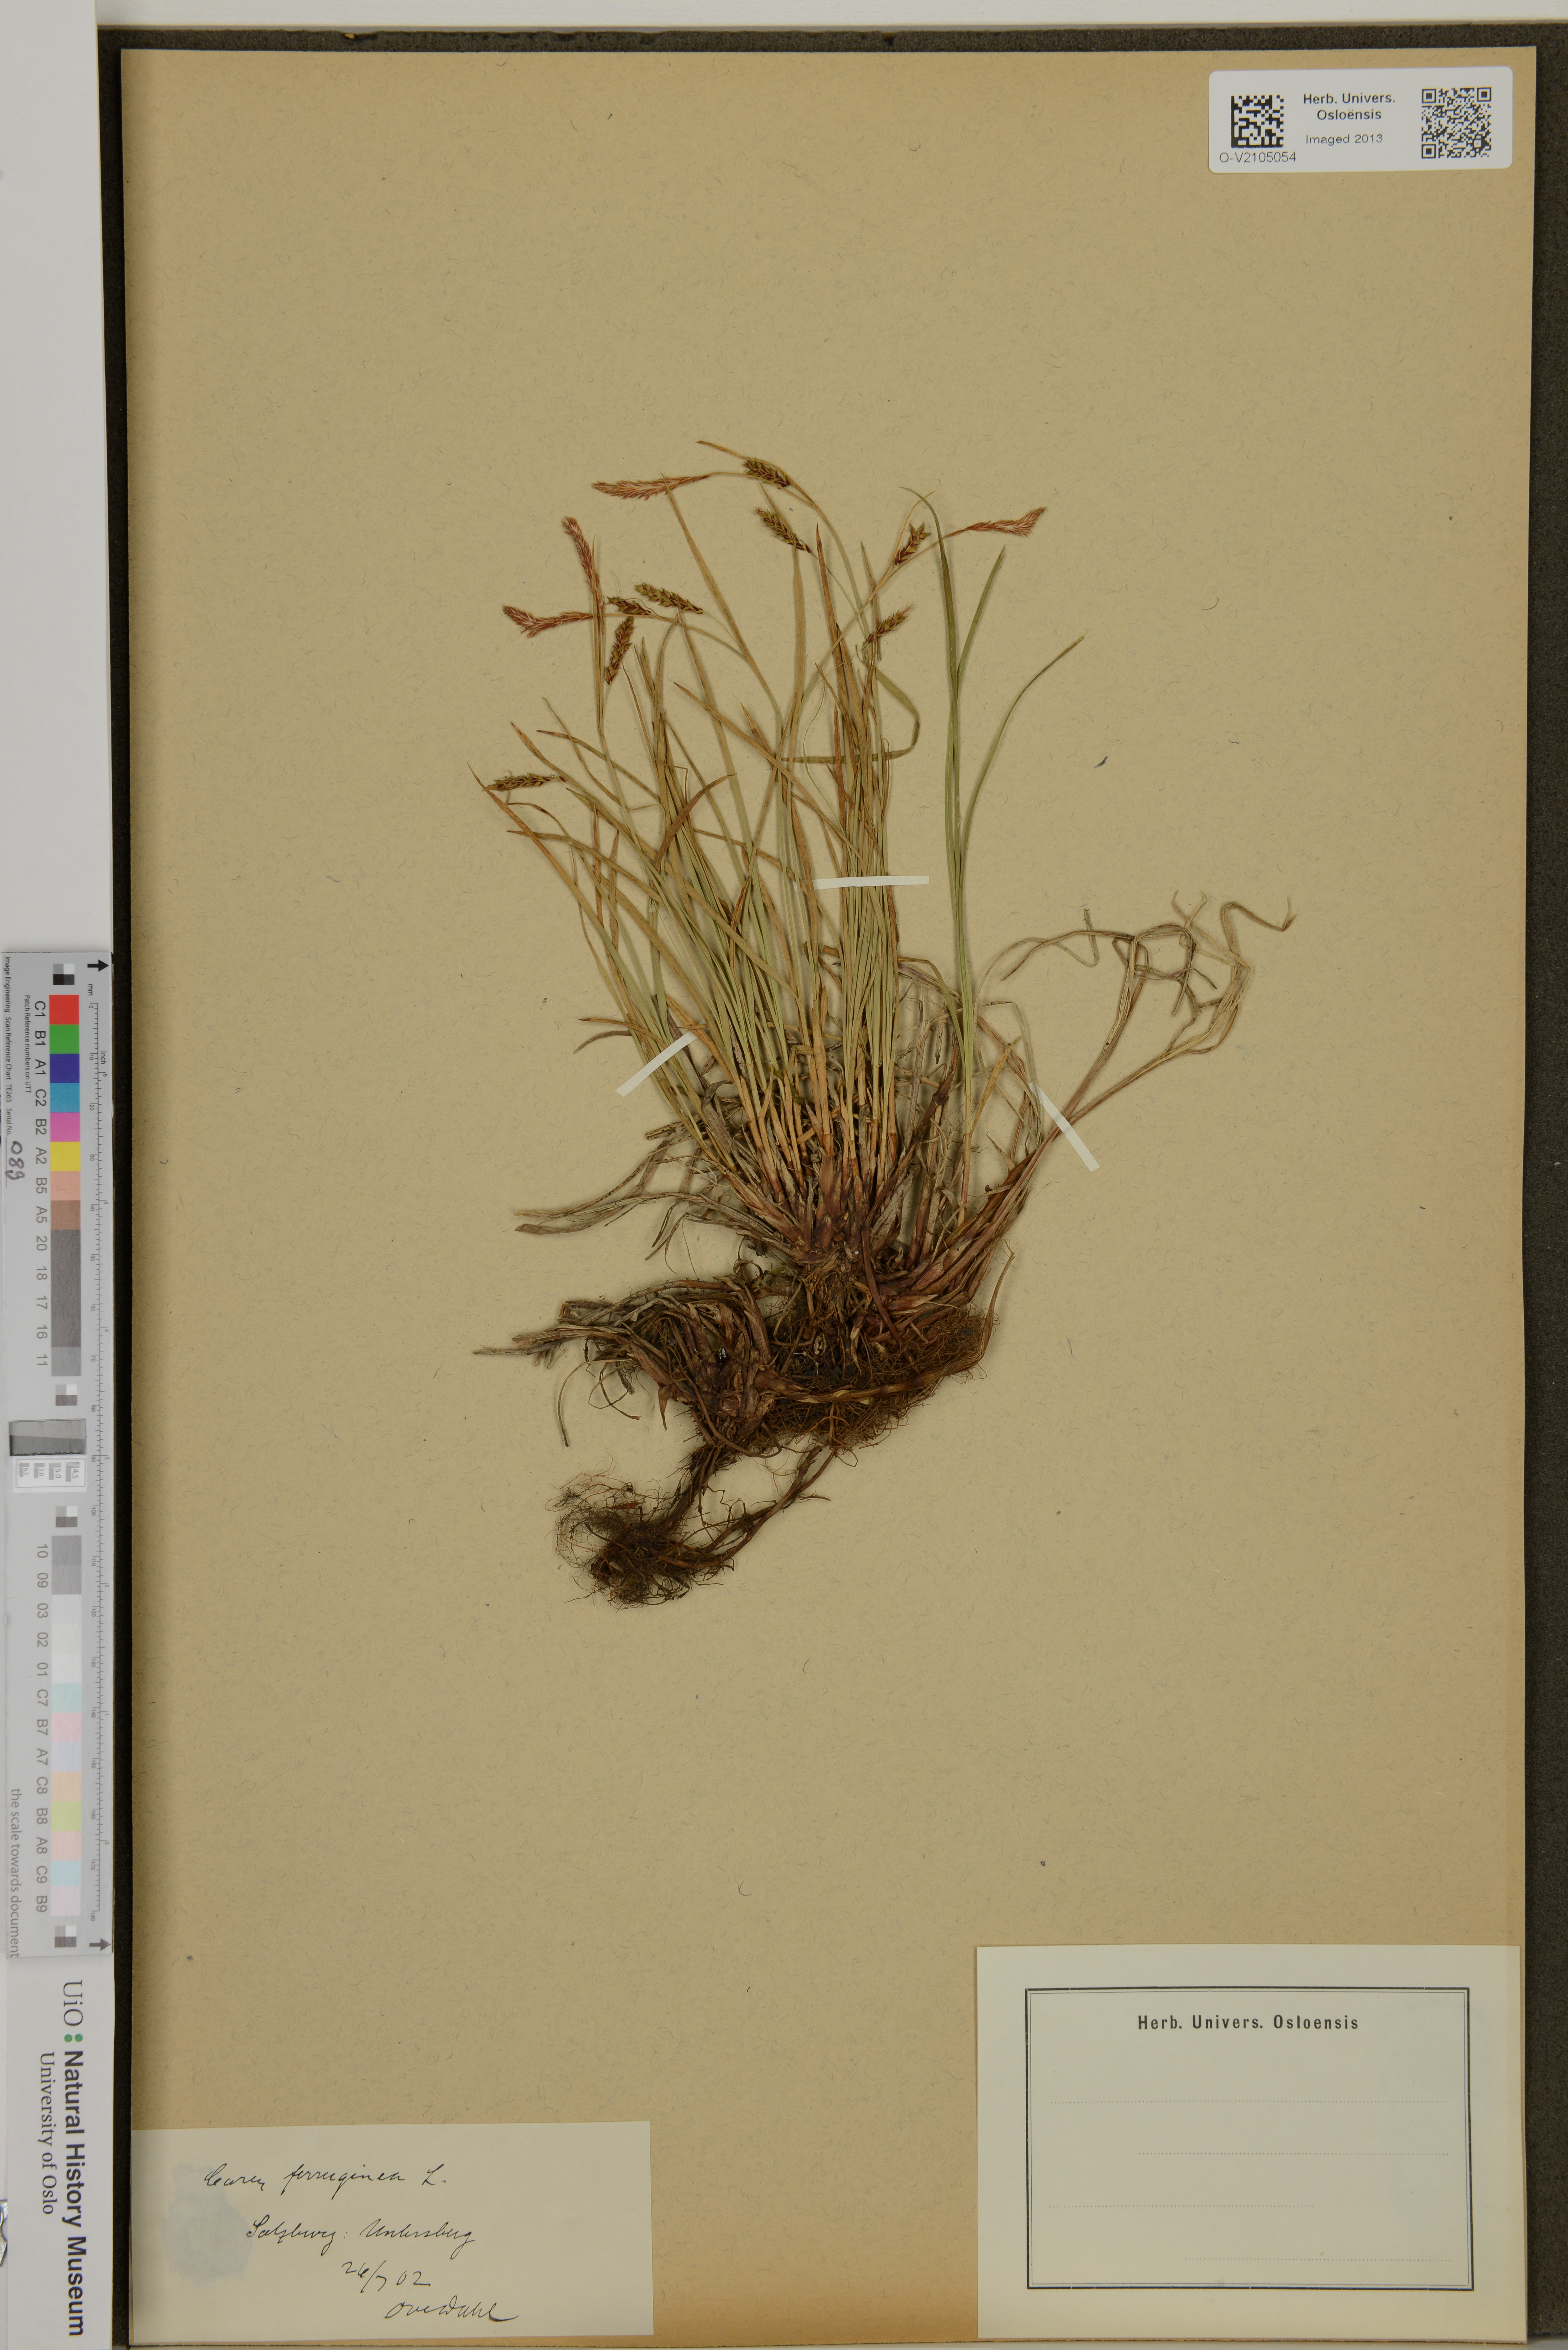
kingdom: Plantae
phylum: Tracheophyta
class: Liliopsida
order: Poales
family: Cyperaceae
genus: Carex
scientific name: Carex ferruginea
